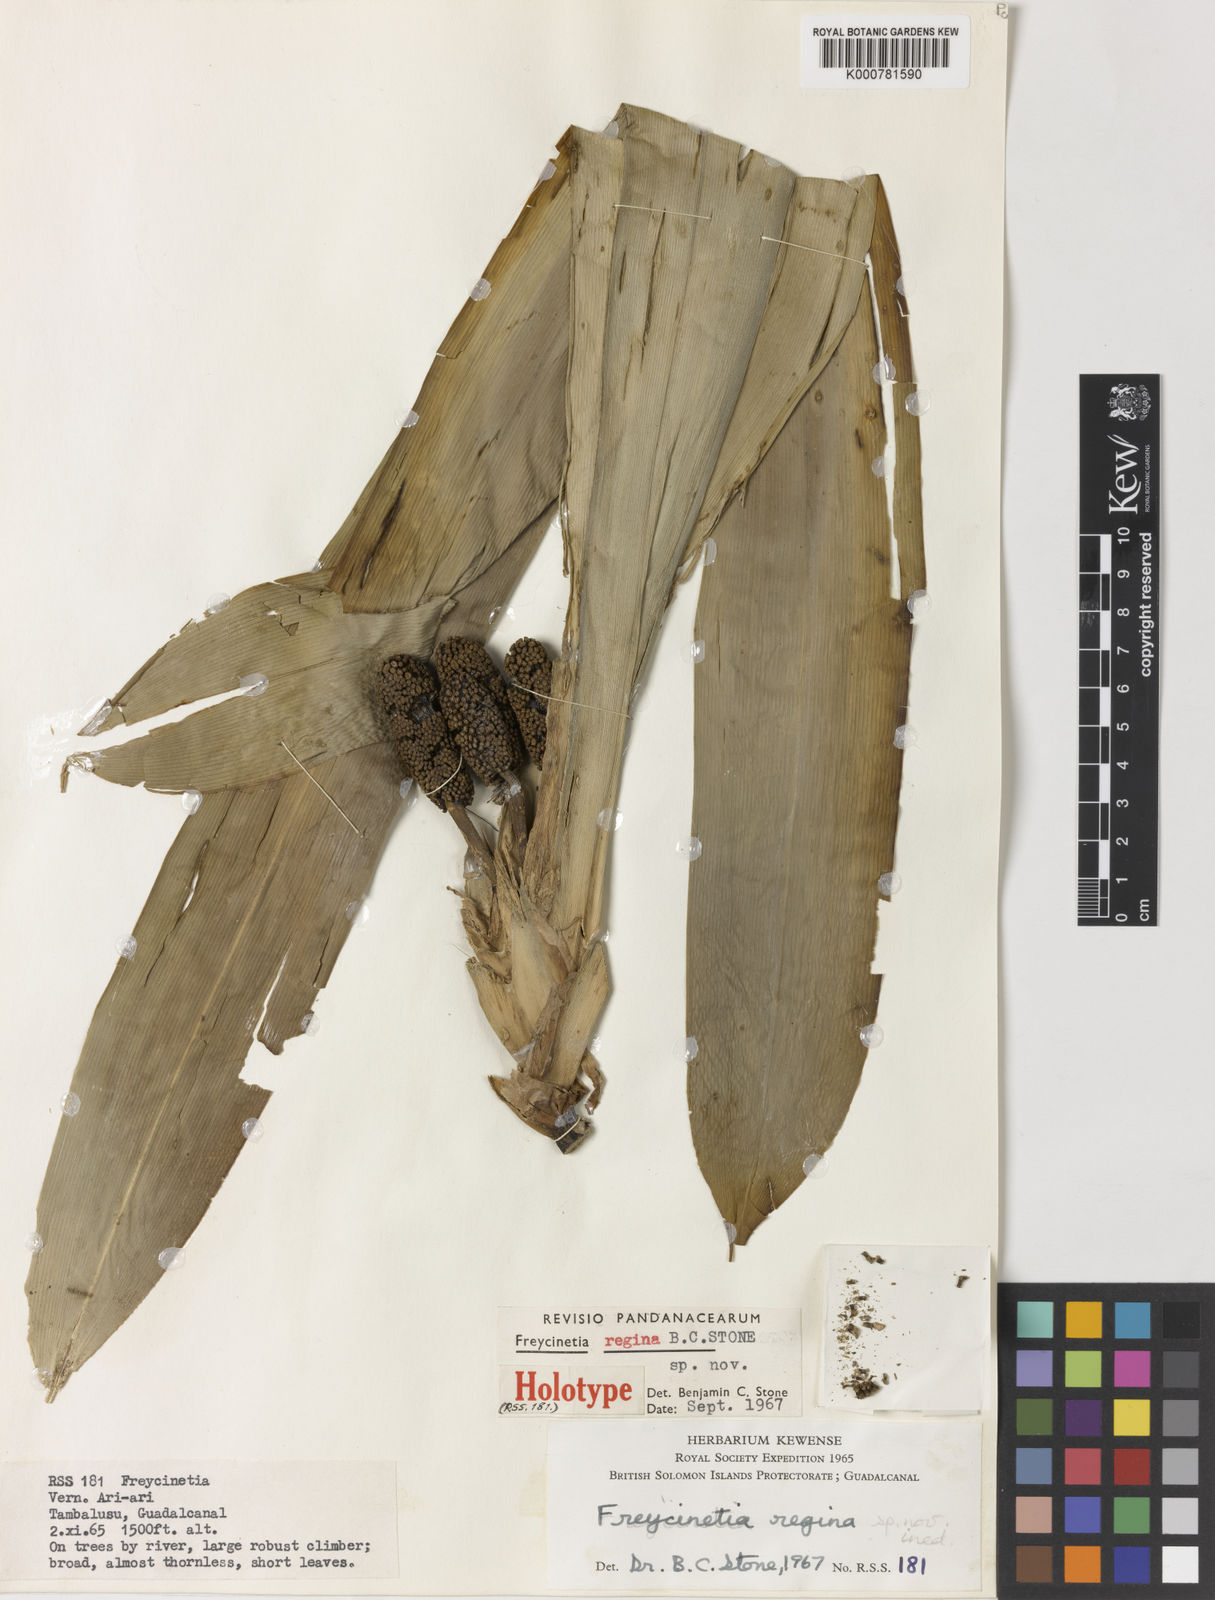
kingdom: Plantae
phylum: Tracheophyta
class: Liliopsida
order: Pandanales
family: Pandanaceae
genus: Freycinetia
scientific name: Freycinetia regina
